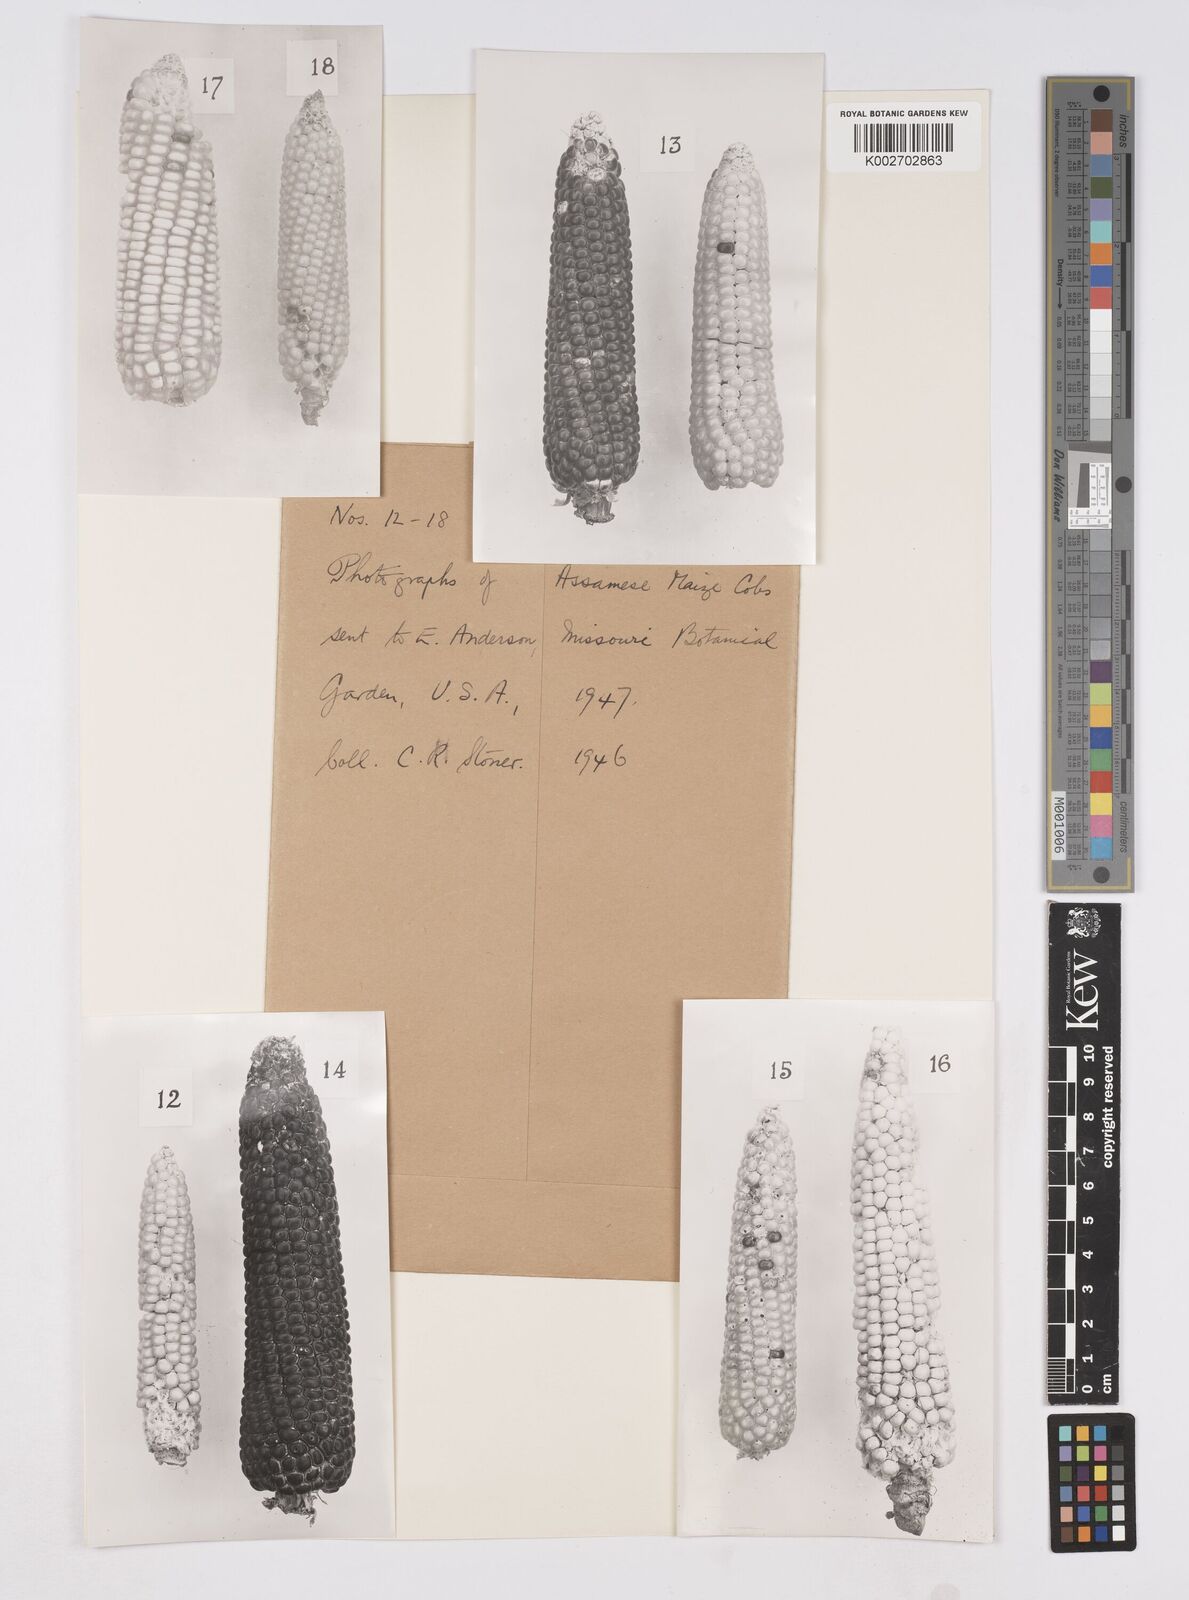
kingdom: Plantae
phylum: Tracheophyta
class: Liliopsida
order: Poales
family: Poaceae
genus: Zea
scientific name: Zea mays
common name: Maize
